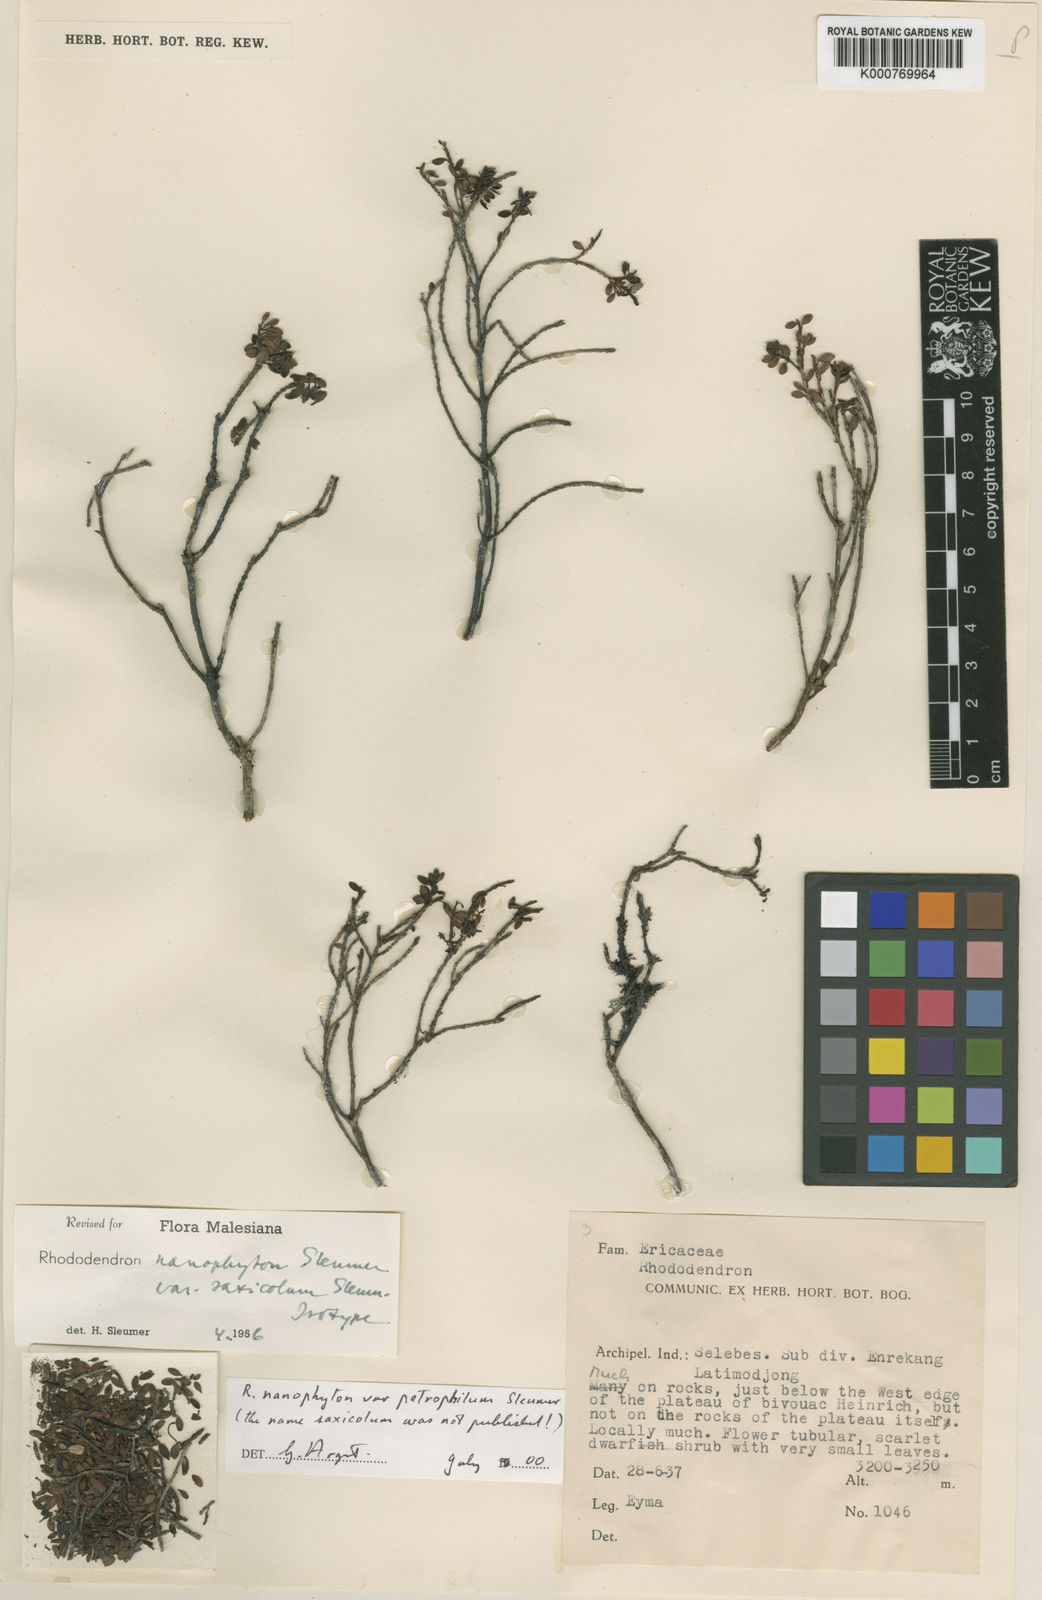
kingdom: Plantae
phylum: Tracheophyta
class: Magnoliopsida
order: Ericales
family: Ericaceae
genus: Rhododendron
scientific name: Rhododendron nanophyton
